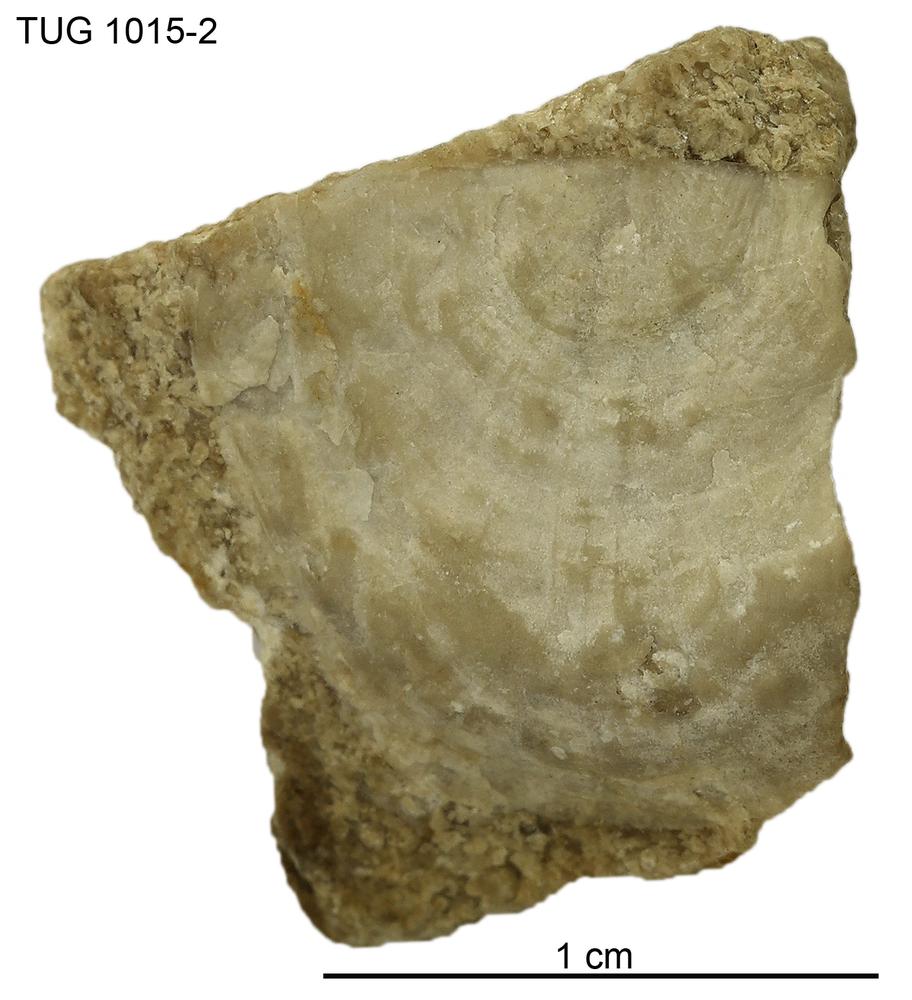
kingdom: Animalia
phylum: Brachiopoda
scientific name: Brachiopoda
